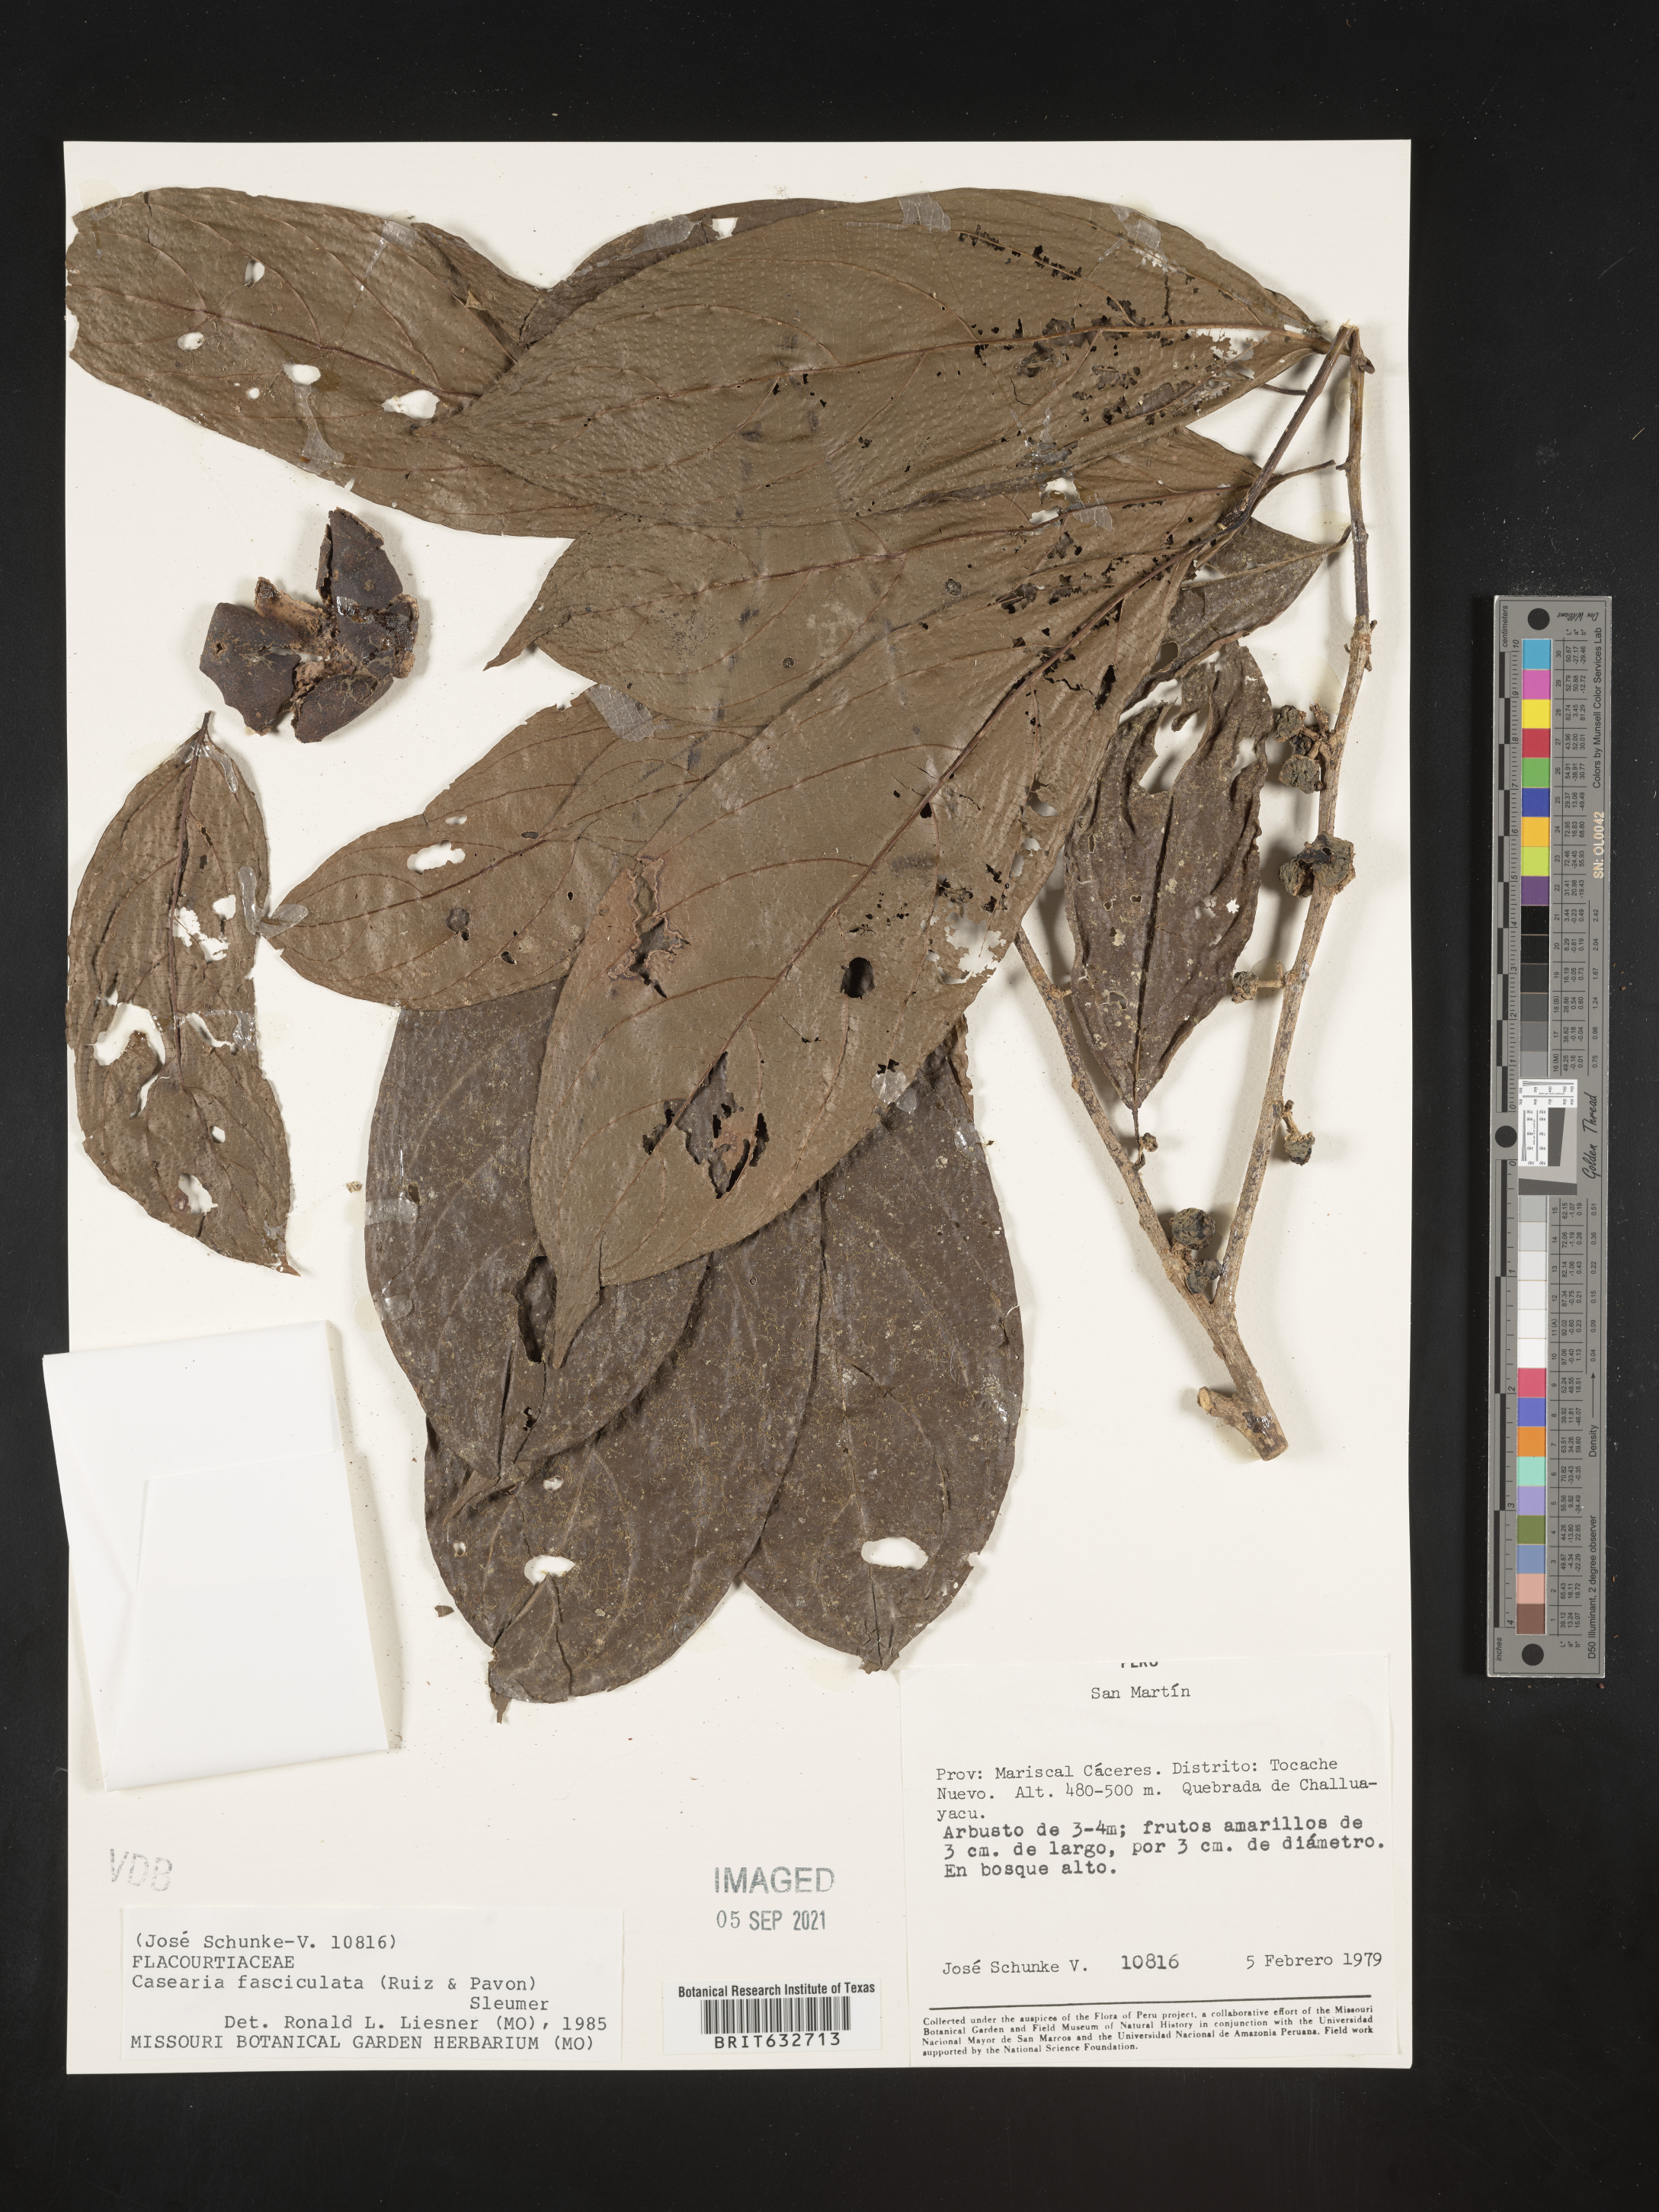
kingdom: Plantae
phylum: Tracheophyta
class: Magnoliopsida
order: Malpighiales
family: Salicaceae
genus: Casearia
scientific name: Casearia
